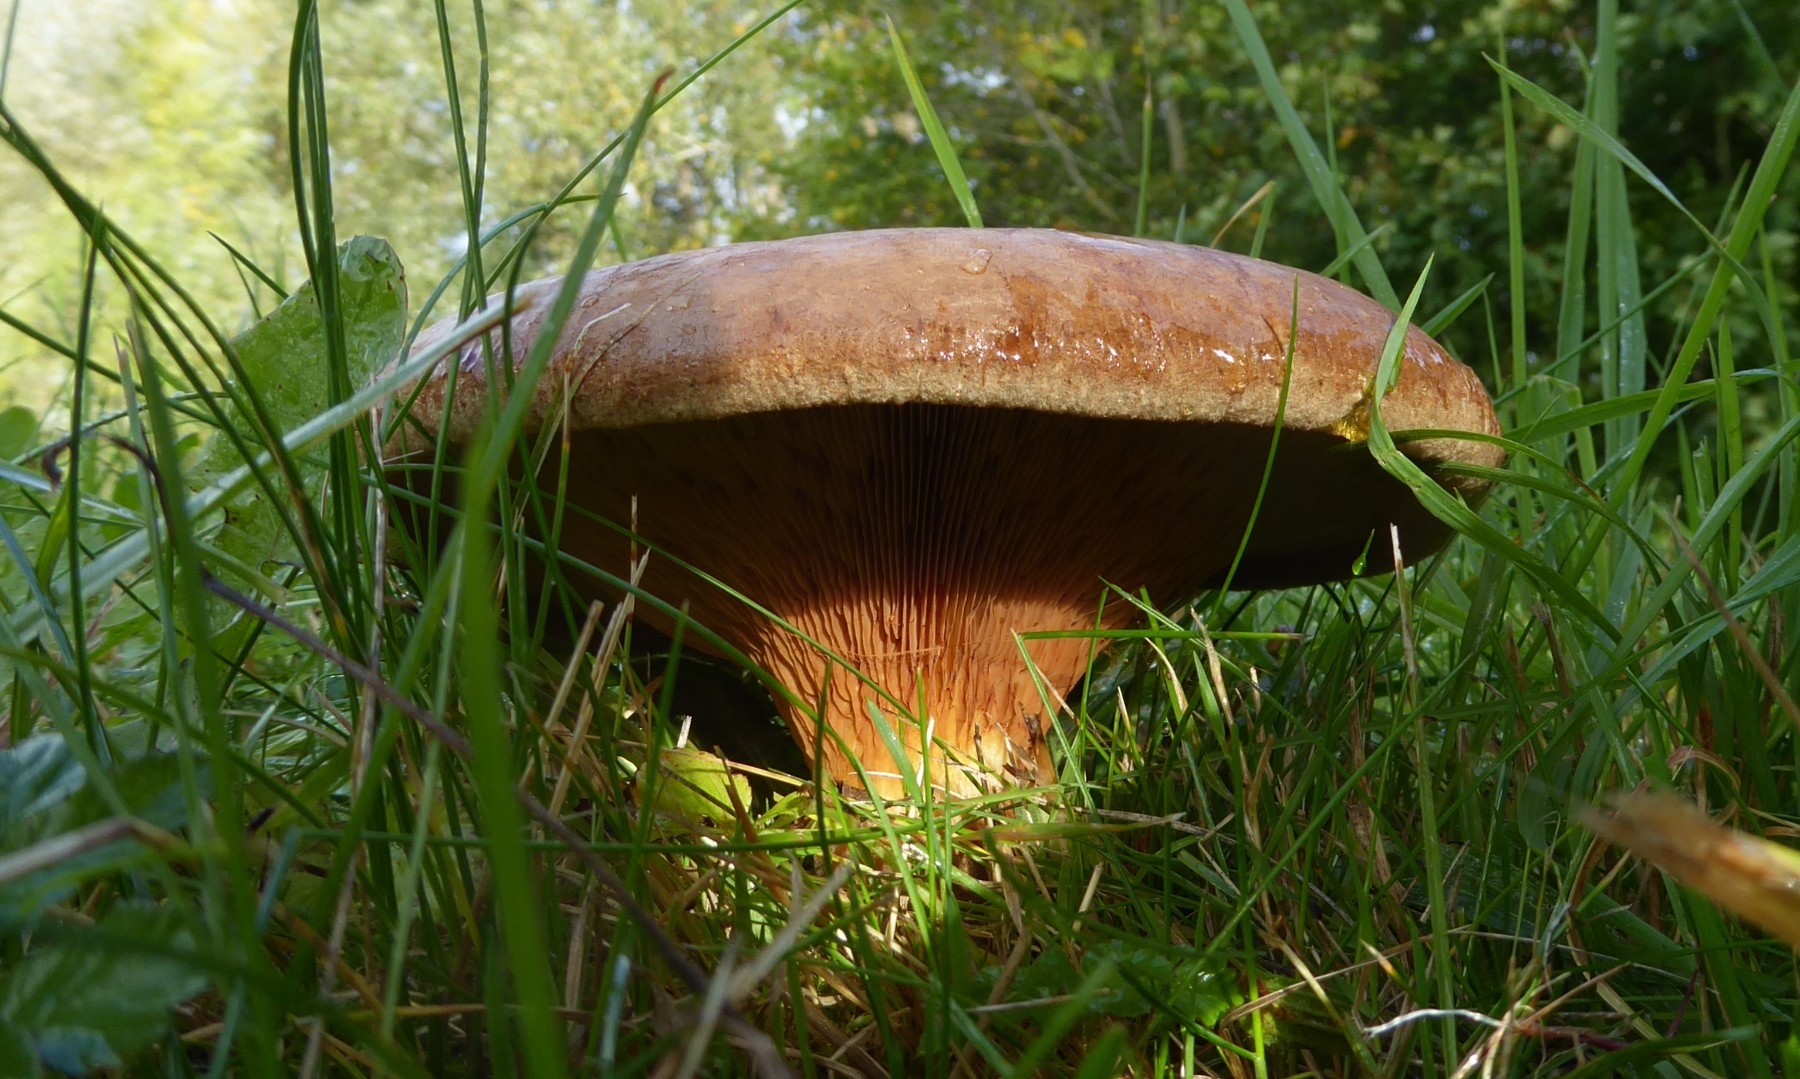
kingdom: Fungi
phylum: Basidiomycota
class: Agaricomycetes
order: Boletales
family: Paxillaceae
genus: Paxillus
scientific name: Paxillus obscurisporus
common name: mahognisporet netbladhat
